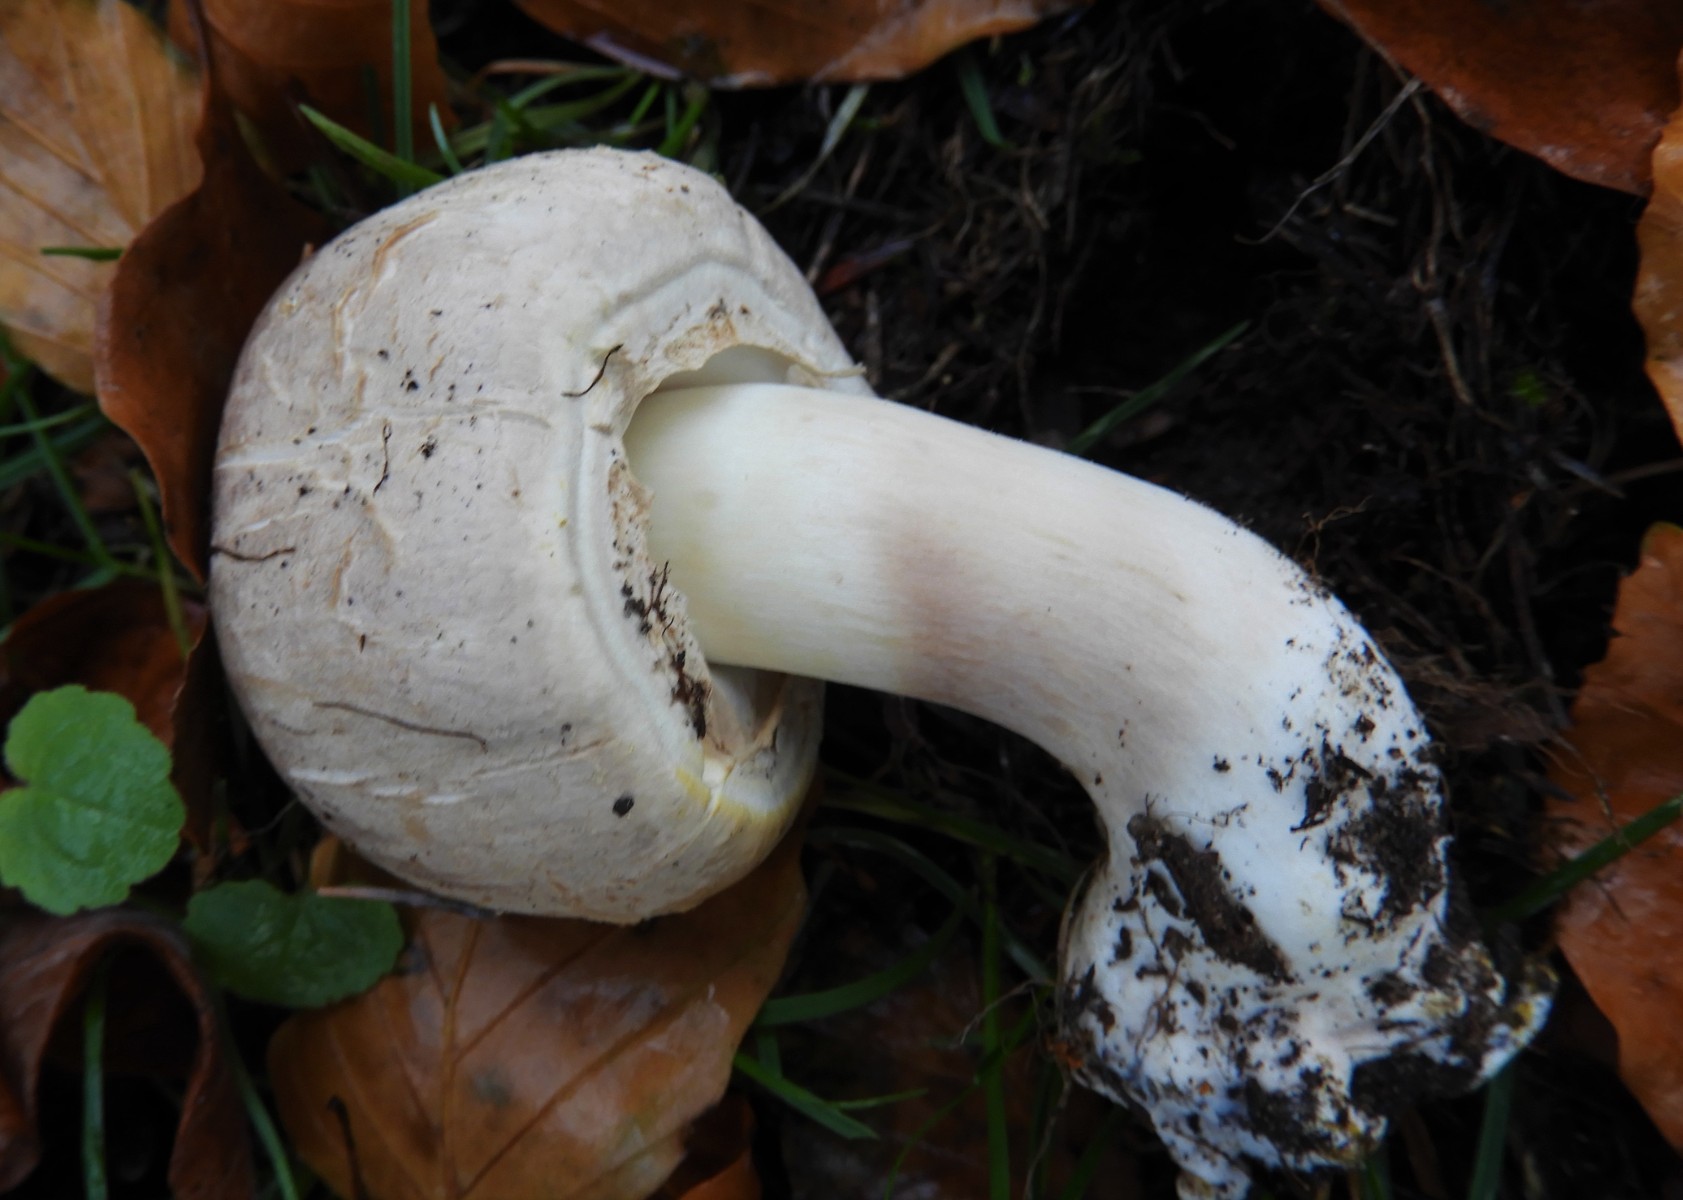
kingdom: Fungi
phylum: Basidiomycota
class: Agaricomycetes
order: Agaricales
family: Agaricaceae
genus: Agaricus
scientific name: Agaricus xanthodermus
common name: karbol-champignon
